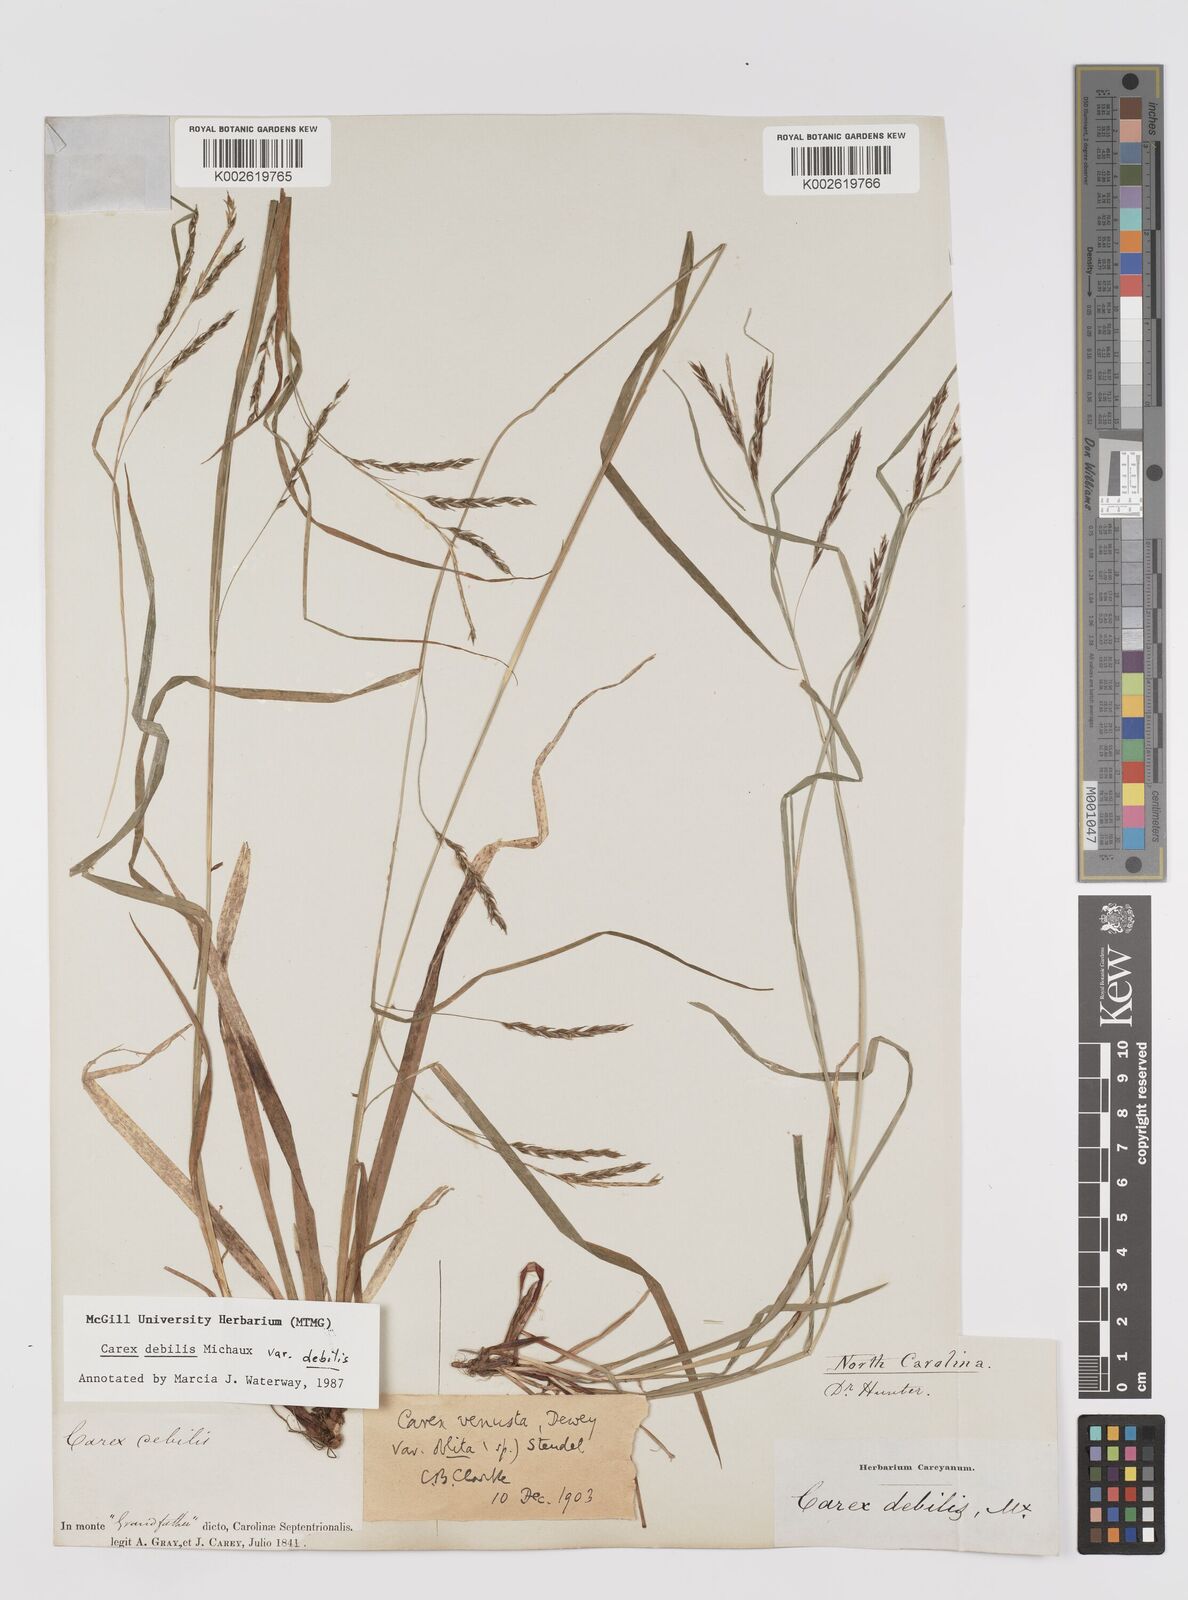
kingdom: Plantae
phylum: Tracheophyta
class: Liliopsida
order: Poales
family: Cyperaceae
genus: Carex
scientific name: Carex debilis
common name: White-edge sedge
